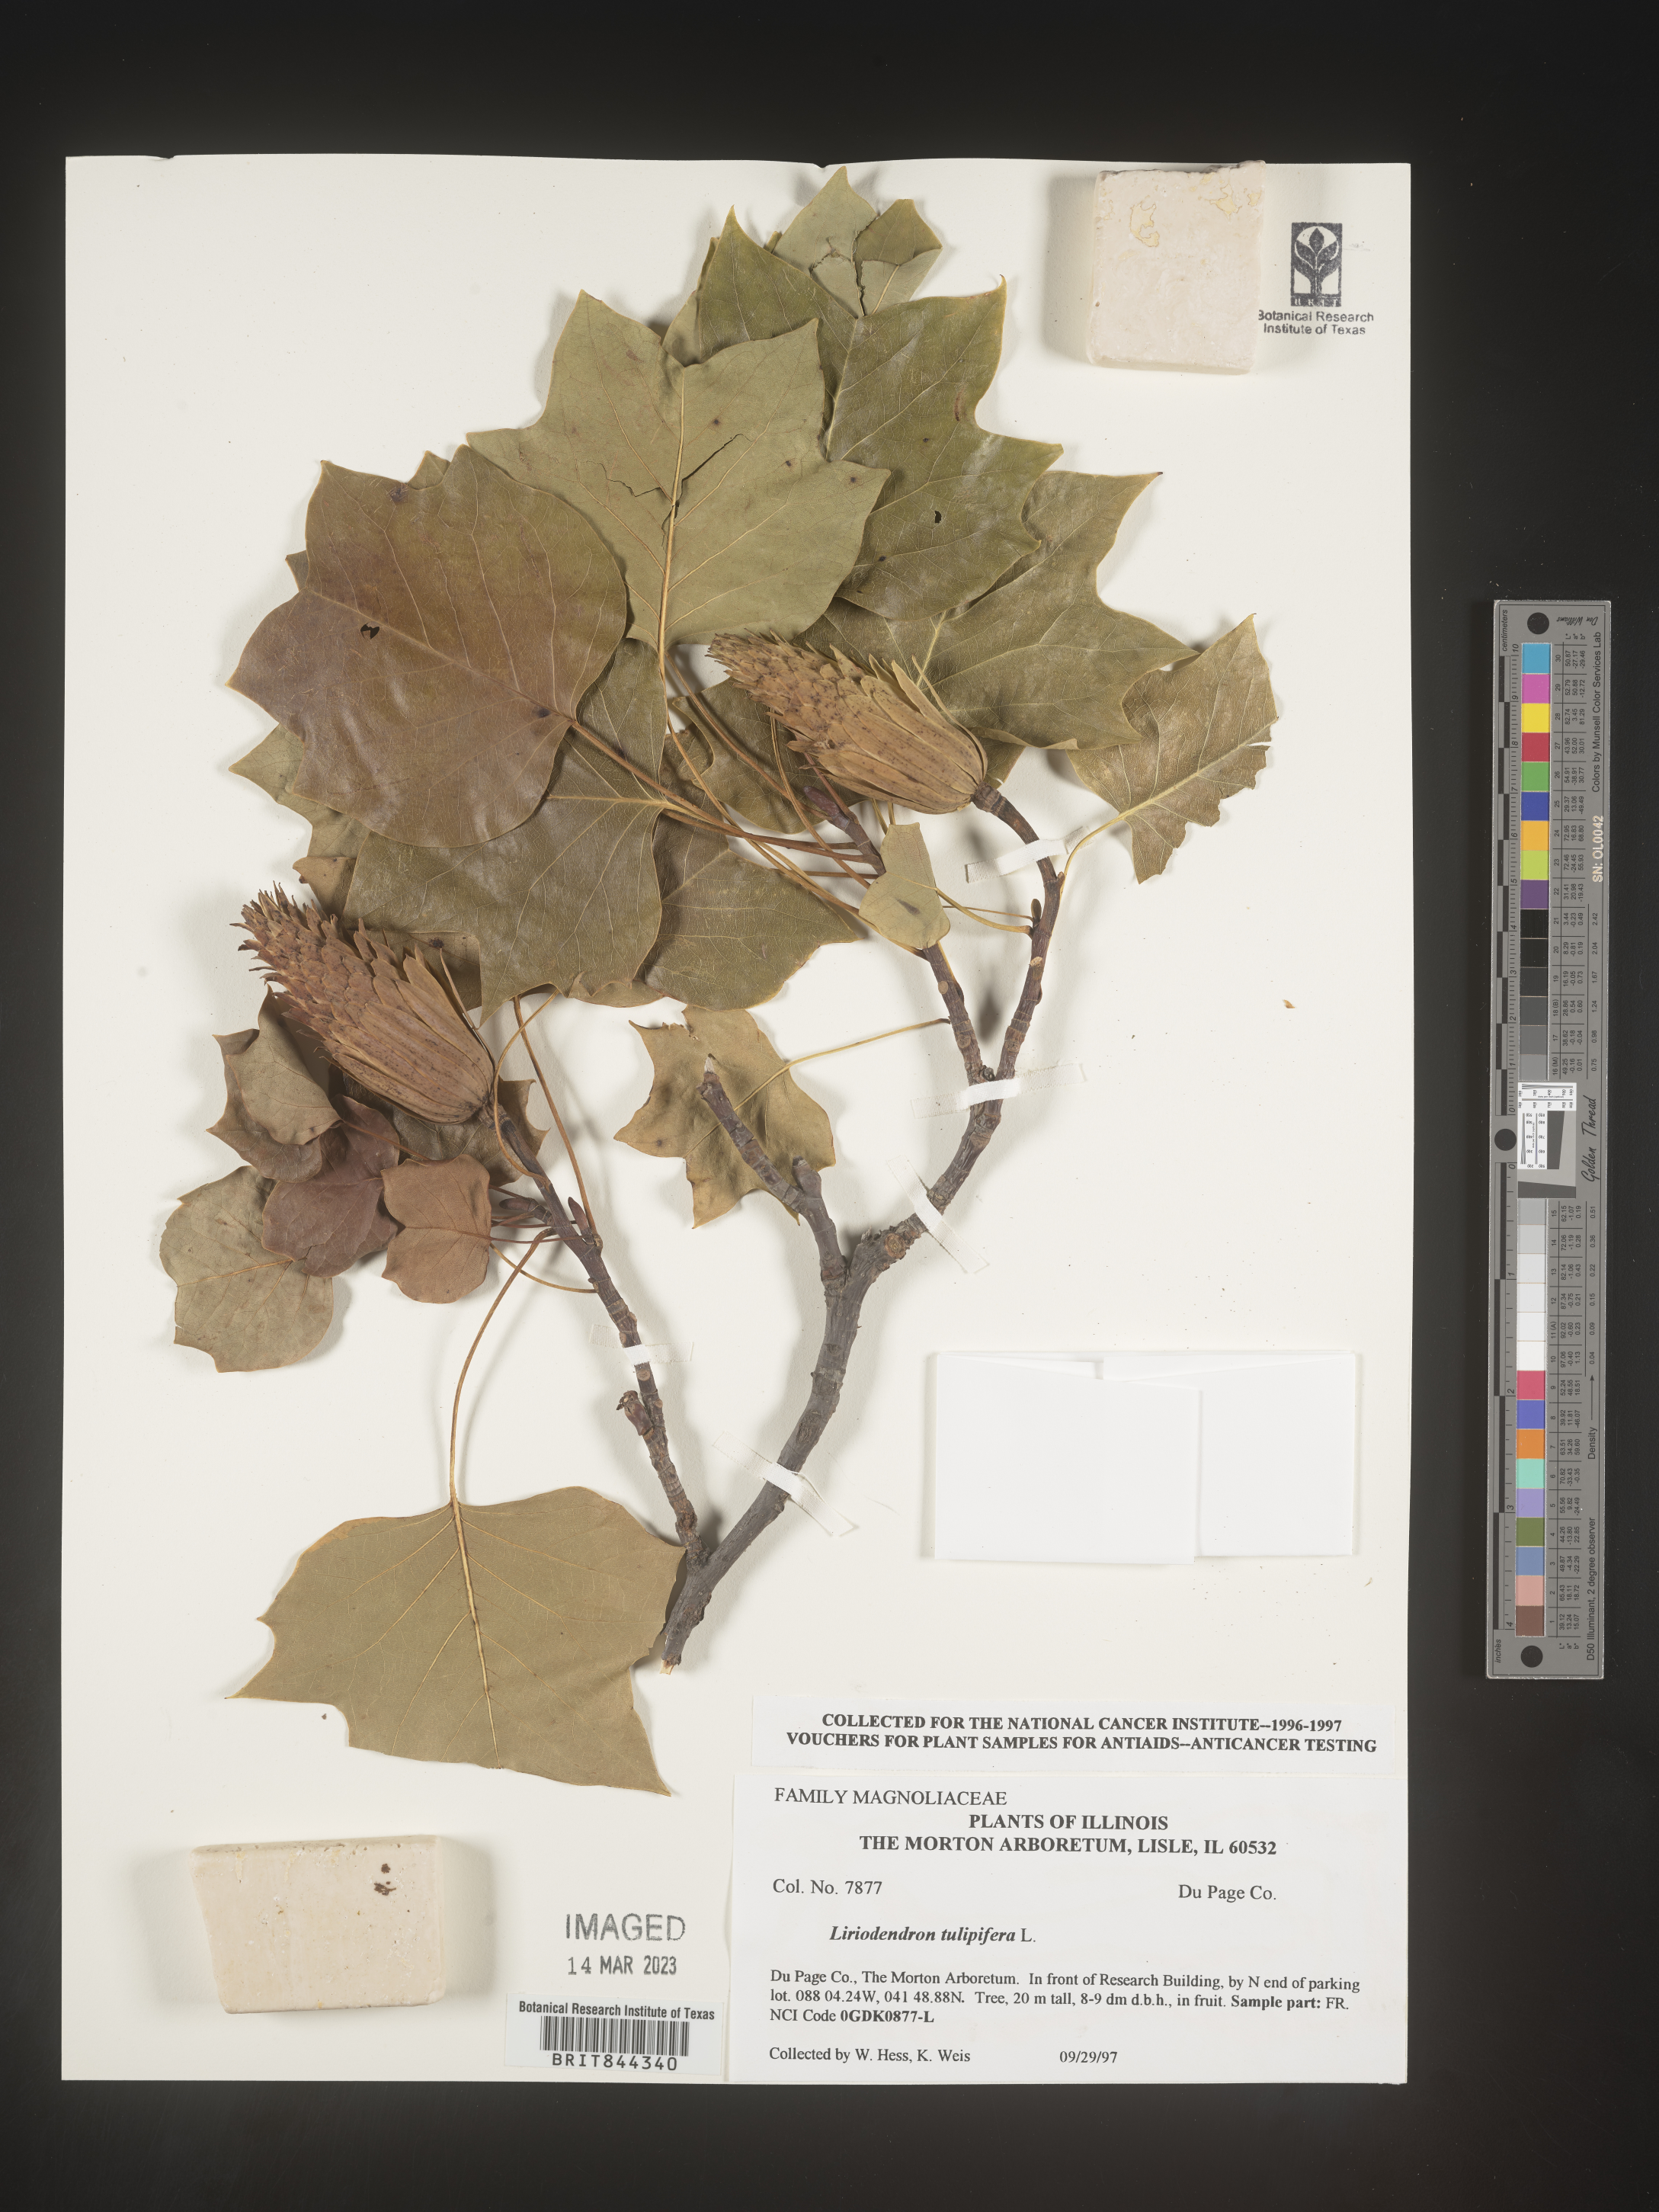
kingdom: Plantae
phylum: Tracheophyta
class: Magnoliopsida
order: Magnoliales
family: Magnoliaceae
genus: Liriodendron
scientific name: Liriodendron tulipifera
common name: Tulip tree
